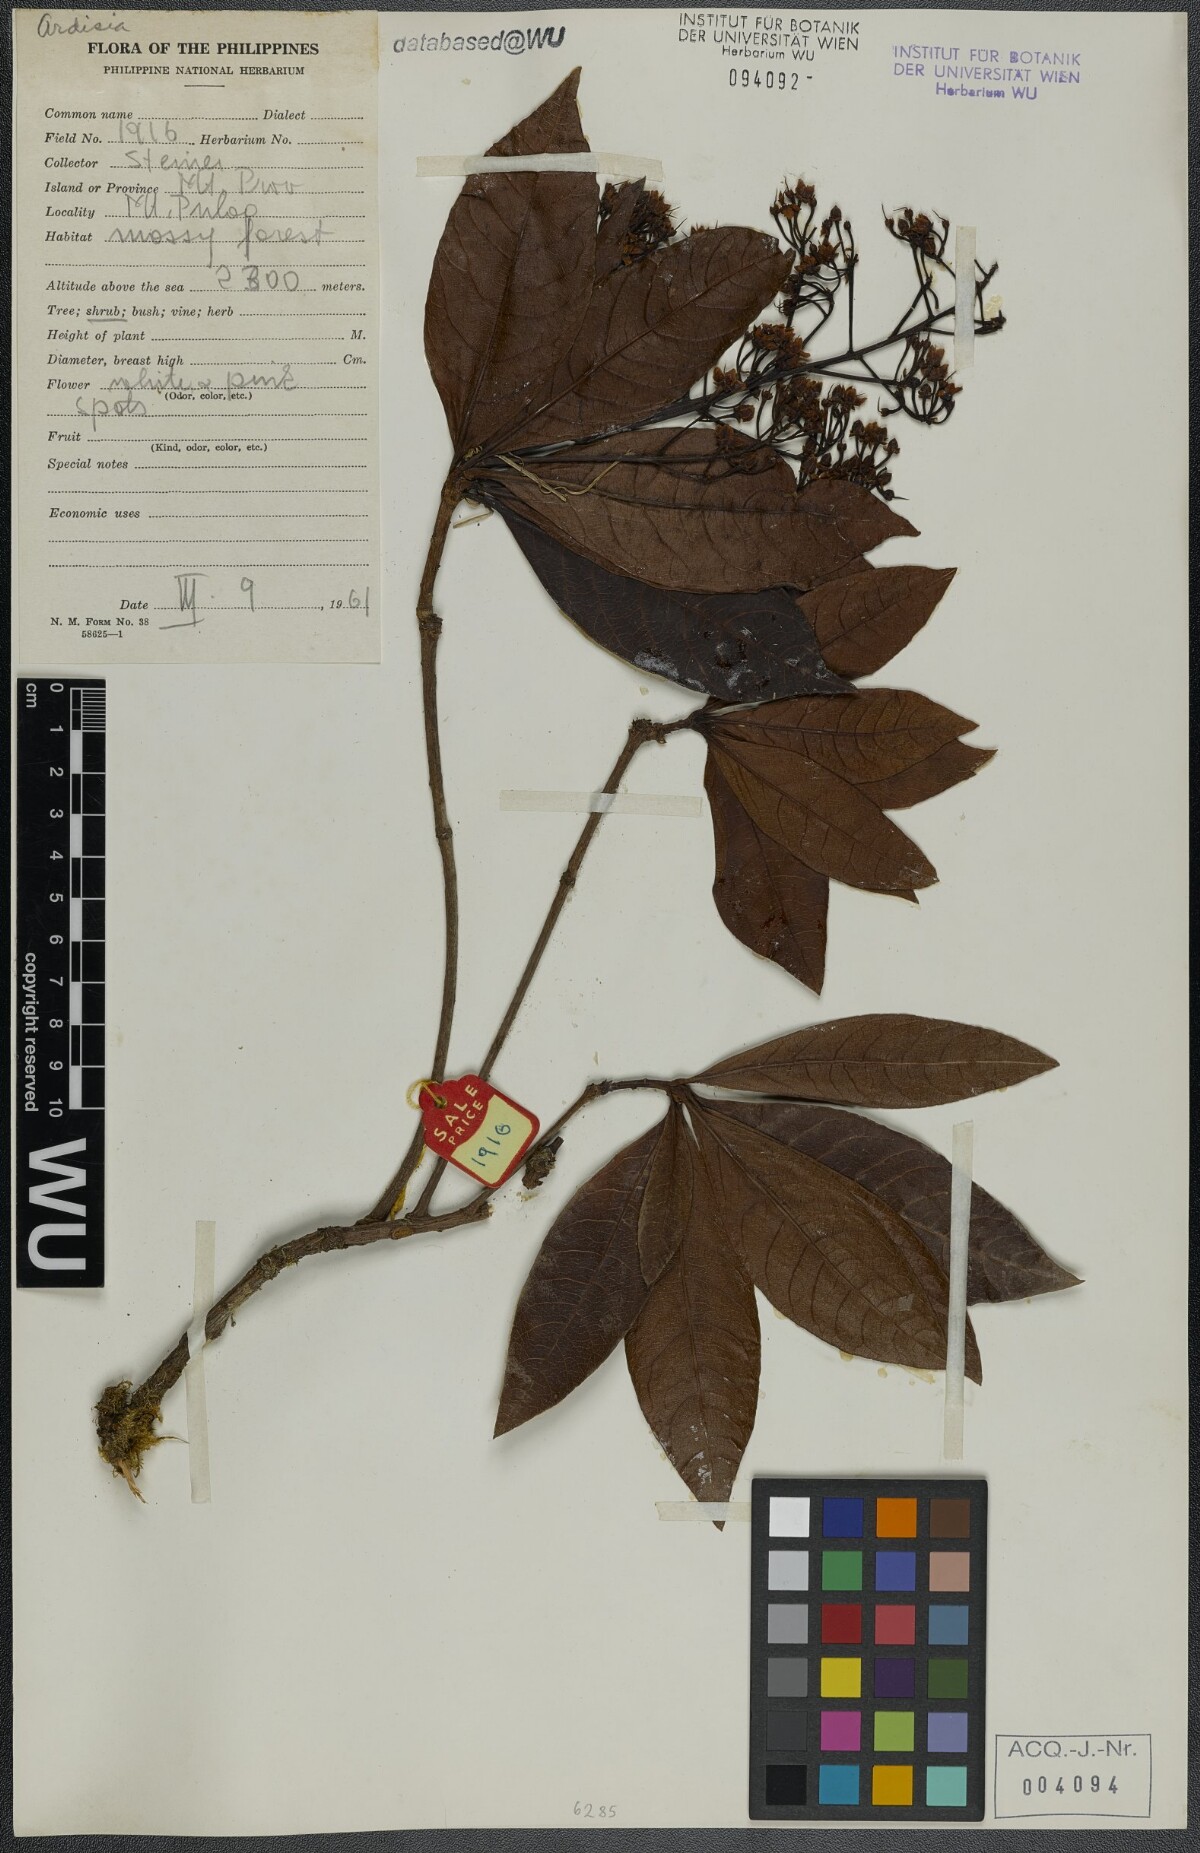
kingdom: Plantae
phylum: Tracheophyta
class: Magnoliopsida
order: Ericales
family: Primulaceae
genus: Ardisia
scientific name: Ardisia
